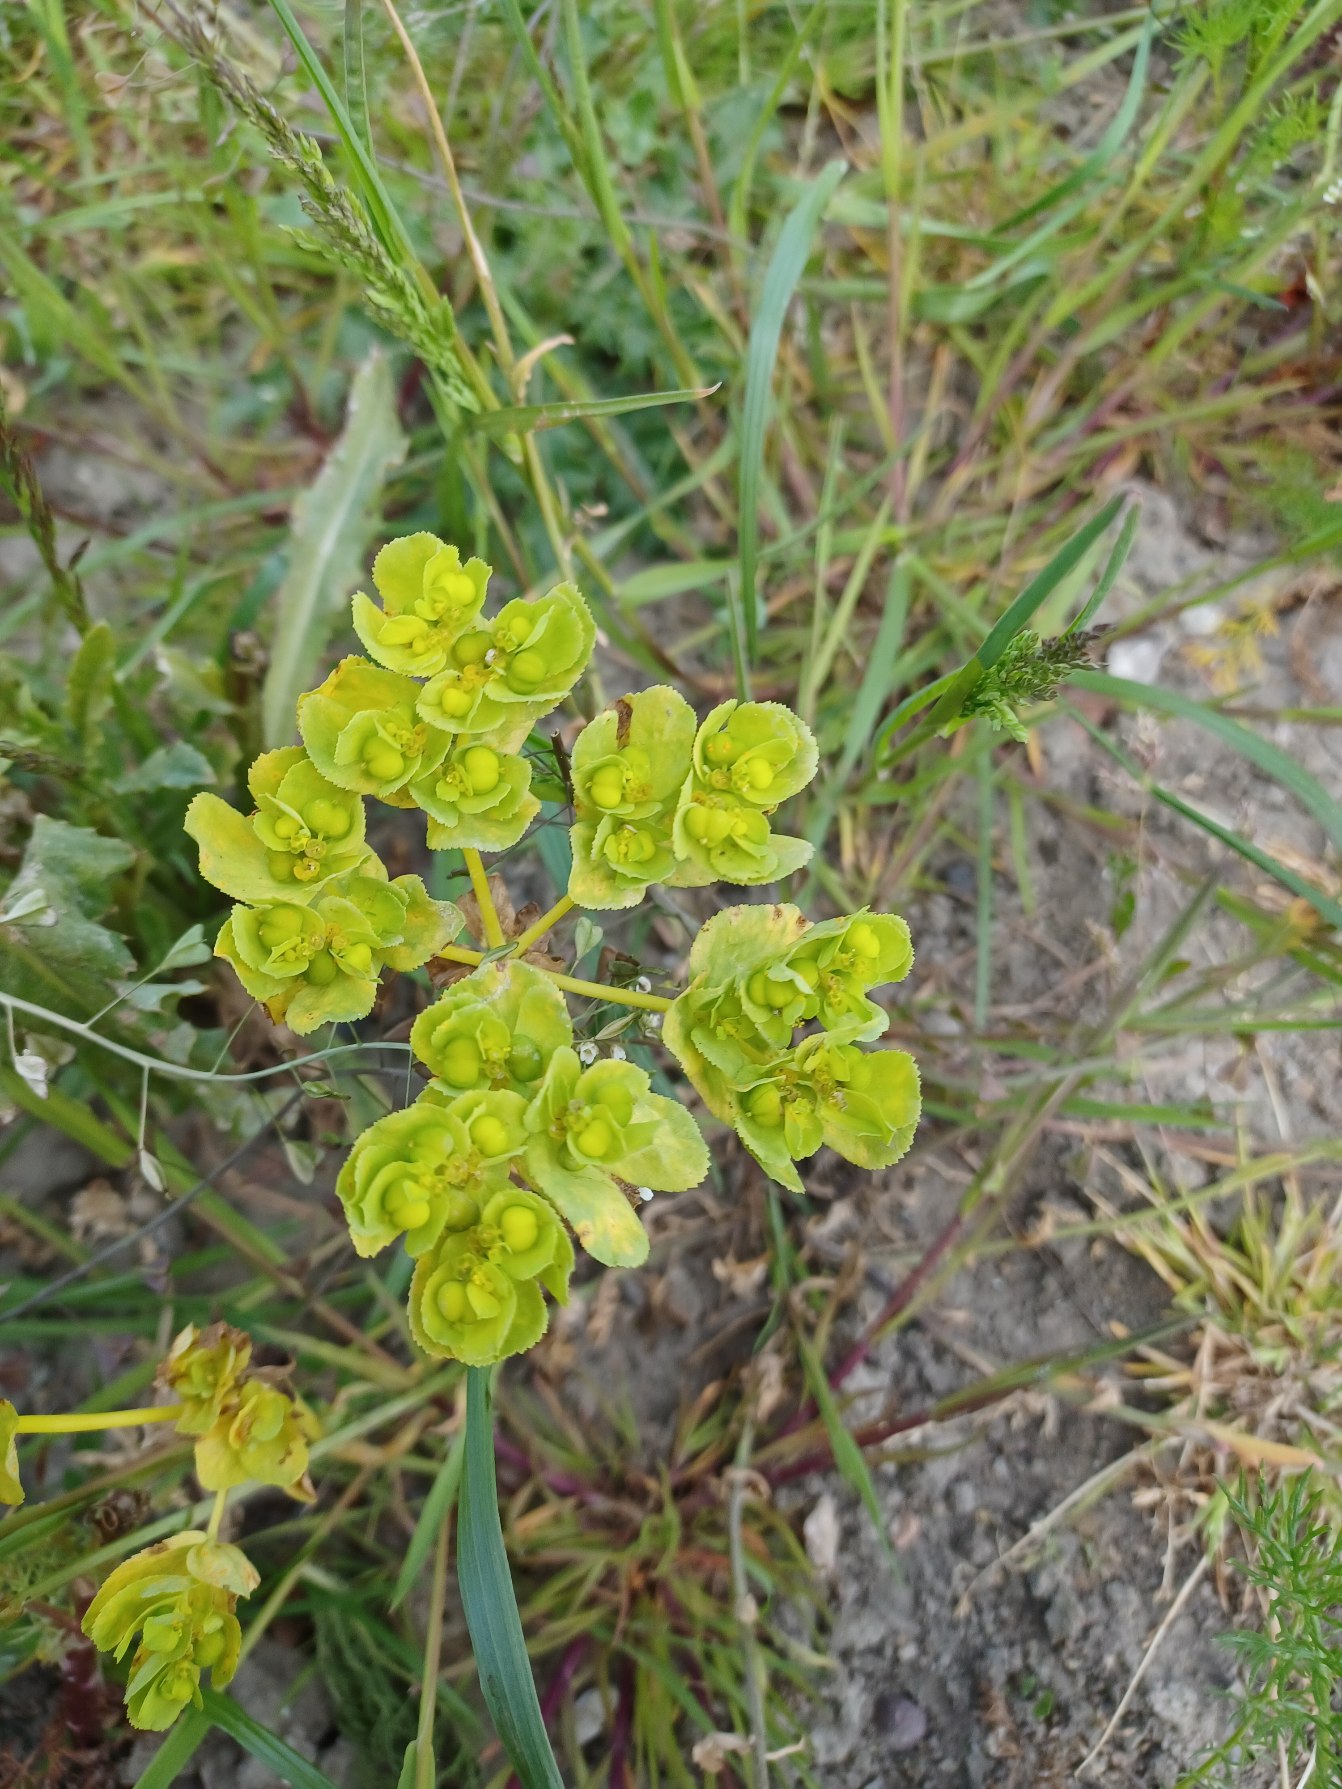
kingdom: Plantae
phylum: Tracheophyta
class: Magnoliopsida
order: Malpighiales
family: Euphorbiaceae
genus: Euphorbia
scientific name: Euphorbia helioscopia
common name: Skærm-vortemælk
